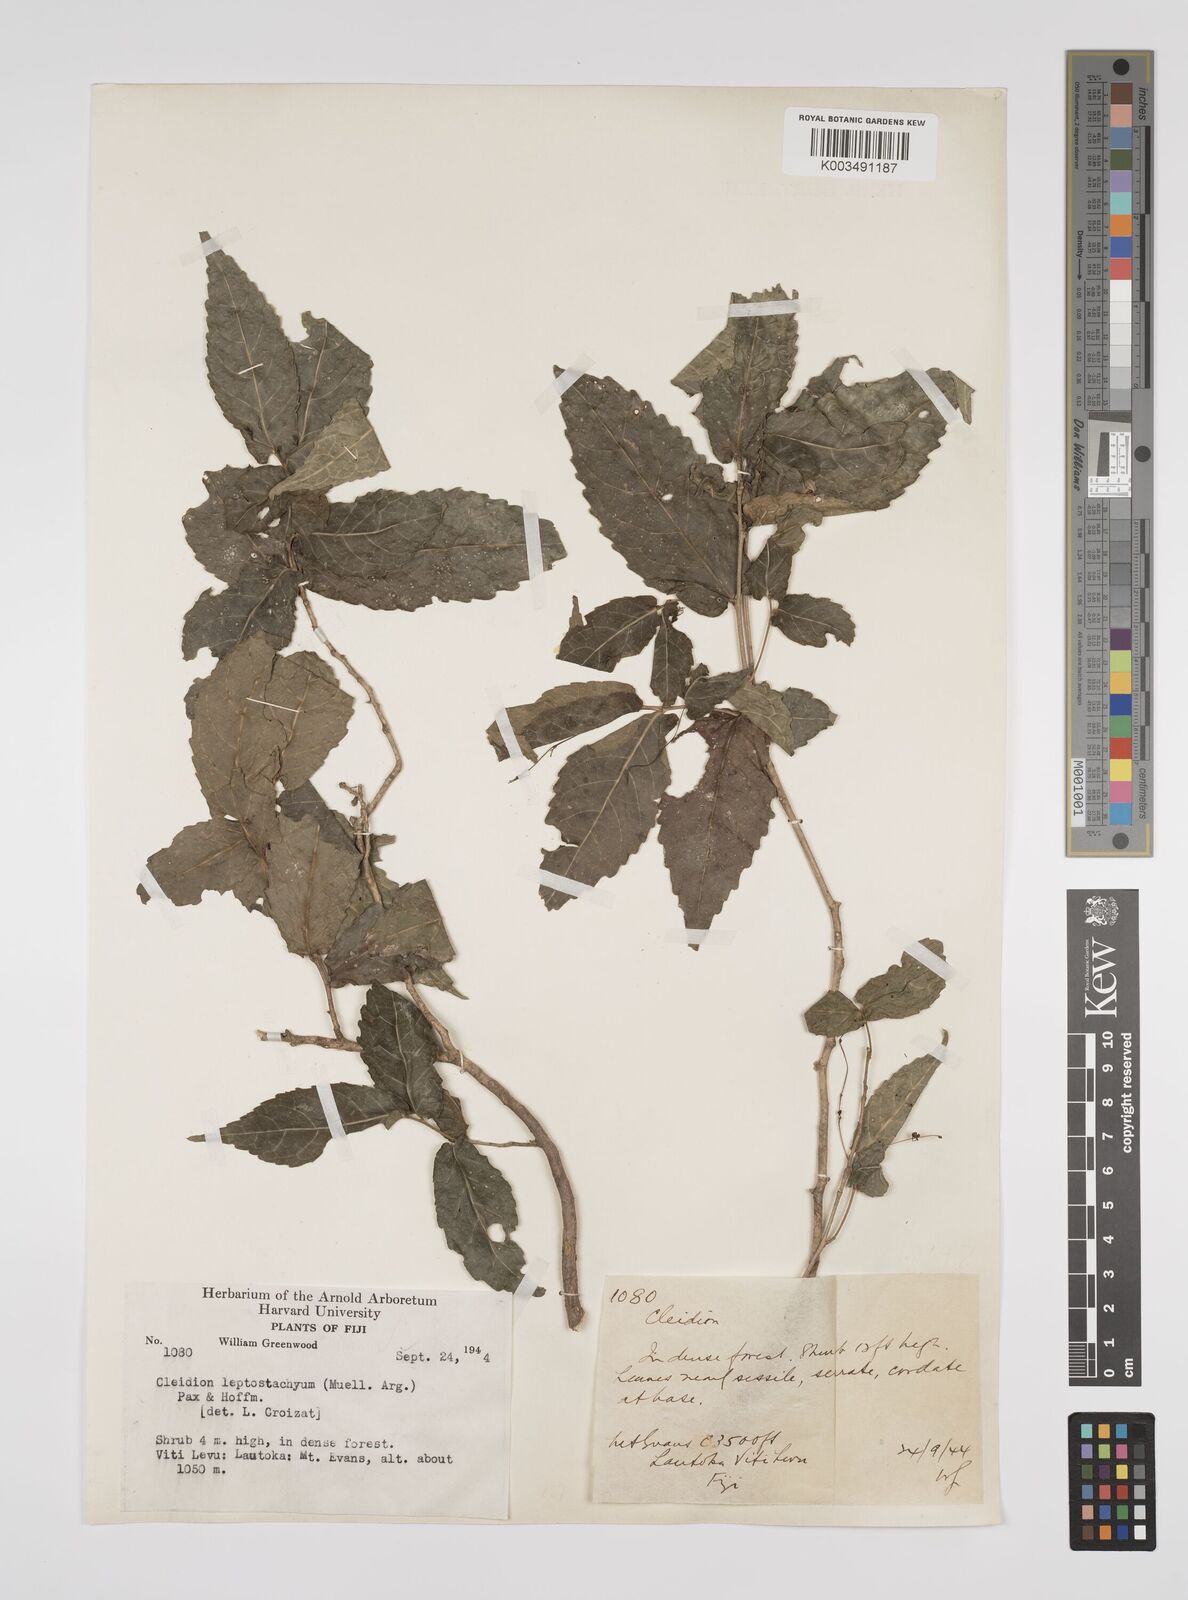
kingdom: Plantae
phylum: Tracheophyta
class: Magnoliopsida
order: Malpighiales
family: Euphorbiaceae
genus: Cleidion
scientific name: Cleidion leptostachyum
